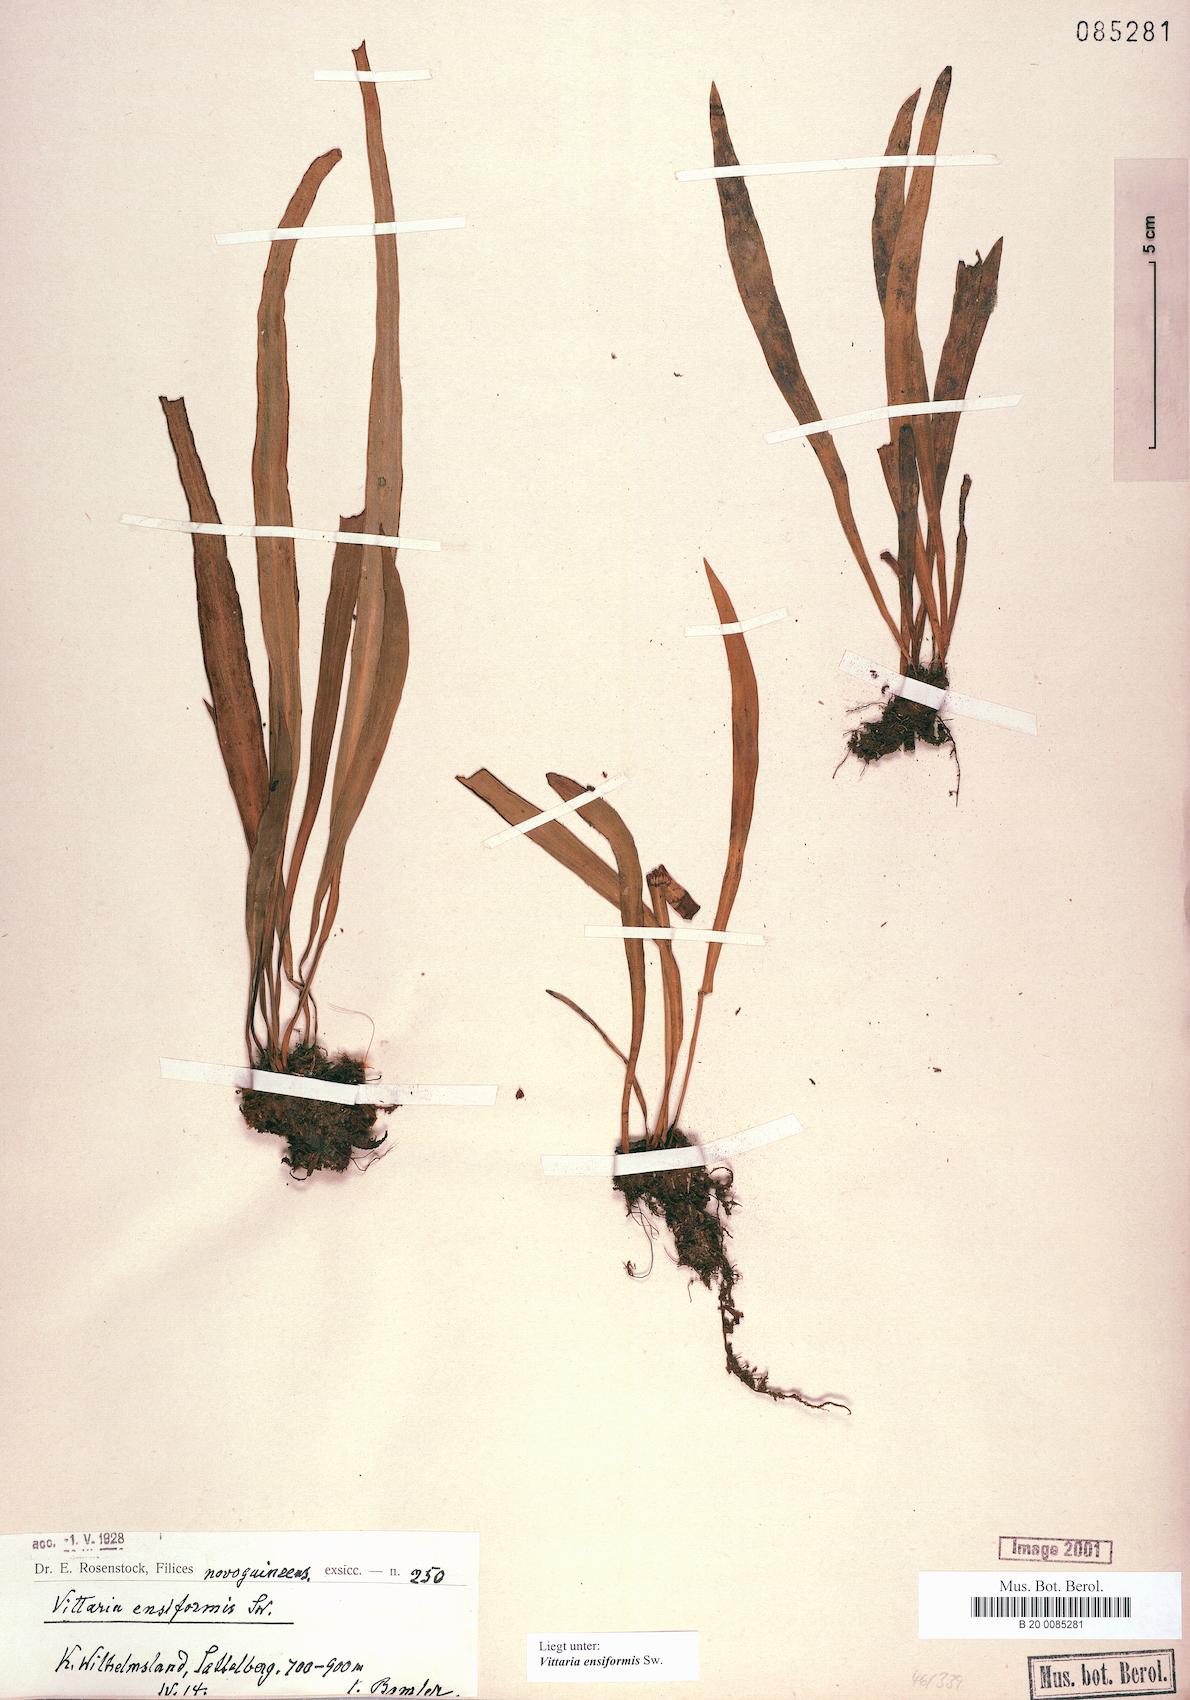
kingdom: Plantae
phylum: Tracheophyta
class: Polypodiopsida
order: Polypodiales
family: Pteridaceae
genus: Haplopteris
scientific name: Haplopteris ensiformis
